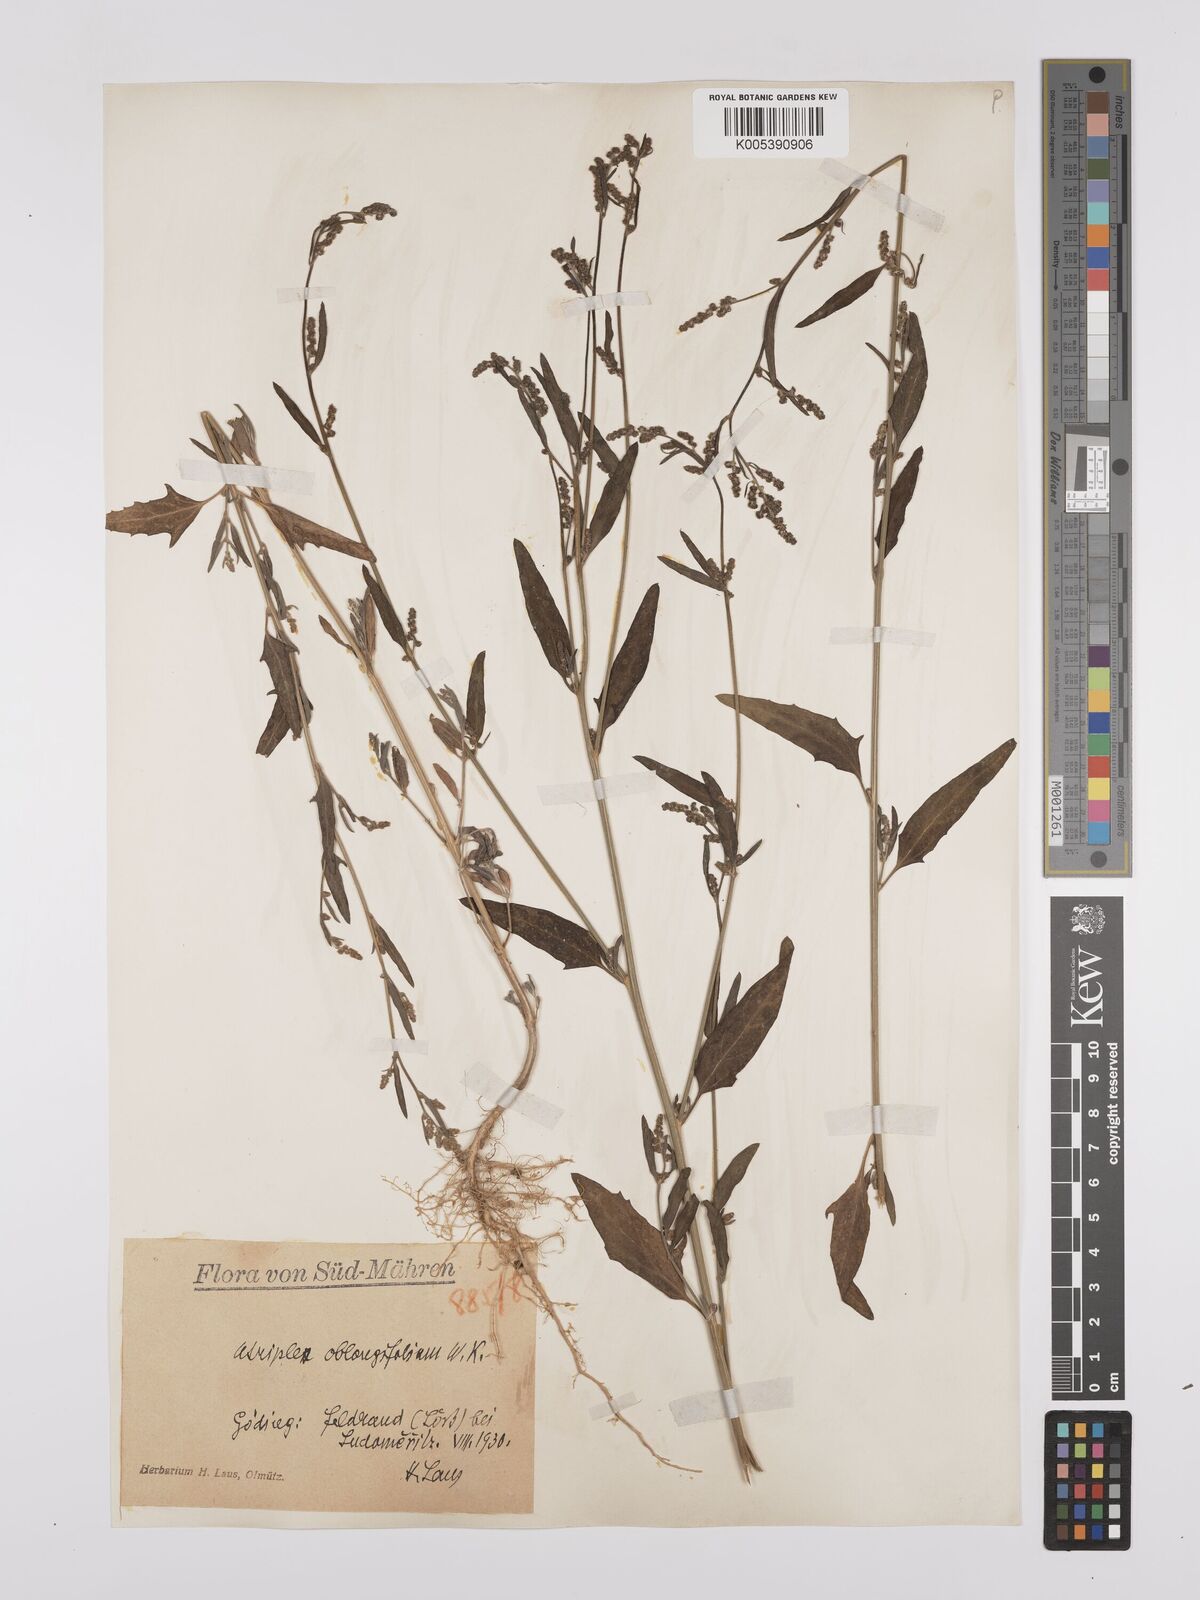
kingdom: Plantae
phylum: Tracheophyta
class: Magnoliopsida
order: Caryophyllales
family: Amaranthaceae
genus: Atriplex
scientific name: Atriplex
